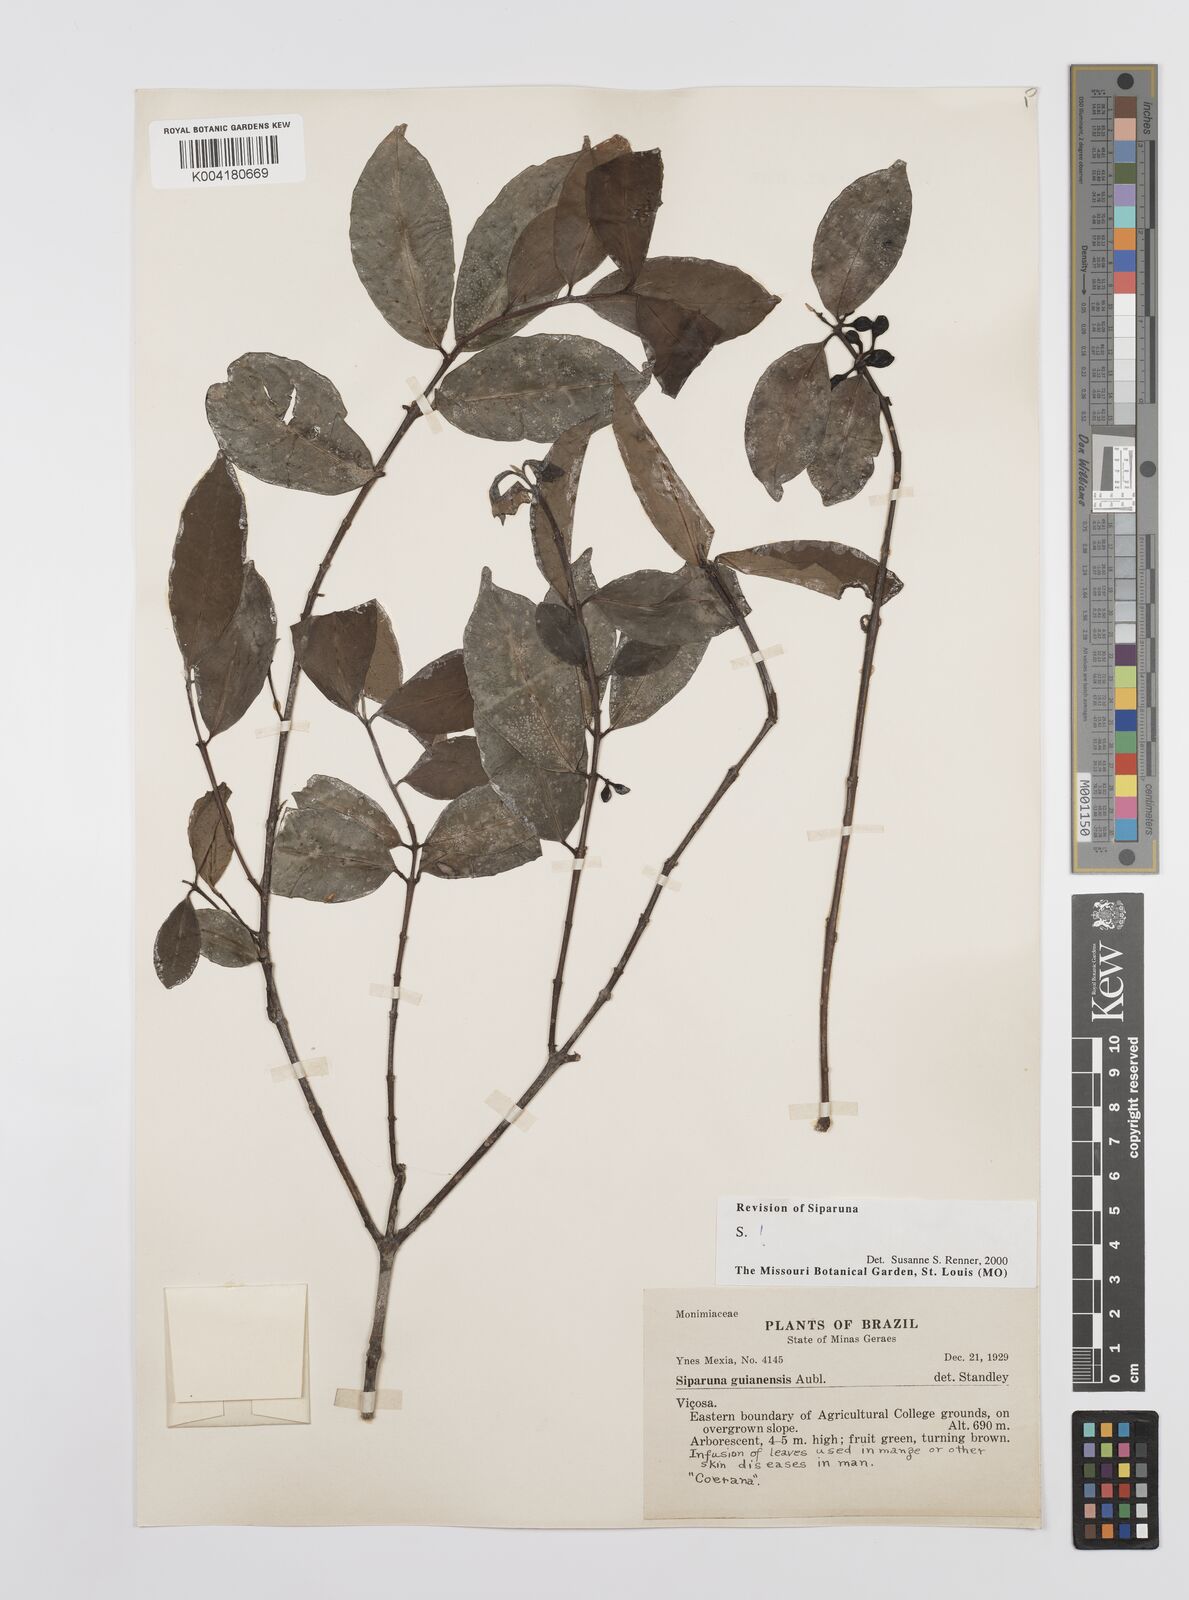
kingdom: Plantae
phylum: Tracheophyta
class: Magnoliopsida
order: Laurales
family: Siparunaceae
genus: Siparuna
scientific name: Siparuna guianensis
